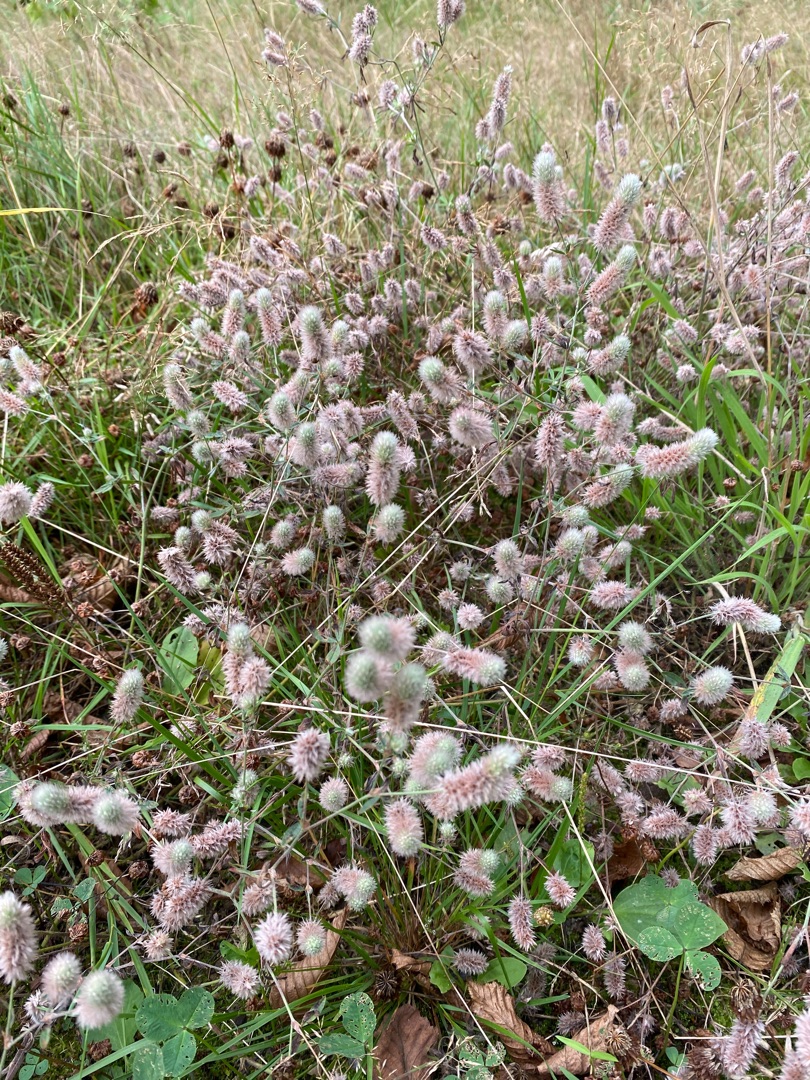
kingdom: Plantae
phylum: Tracheophyta
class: Magnoliopsida
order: Fabales
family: Fabaceae
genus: Trifolium
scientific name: Trifolium arvense
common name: Hare-kløver
